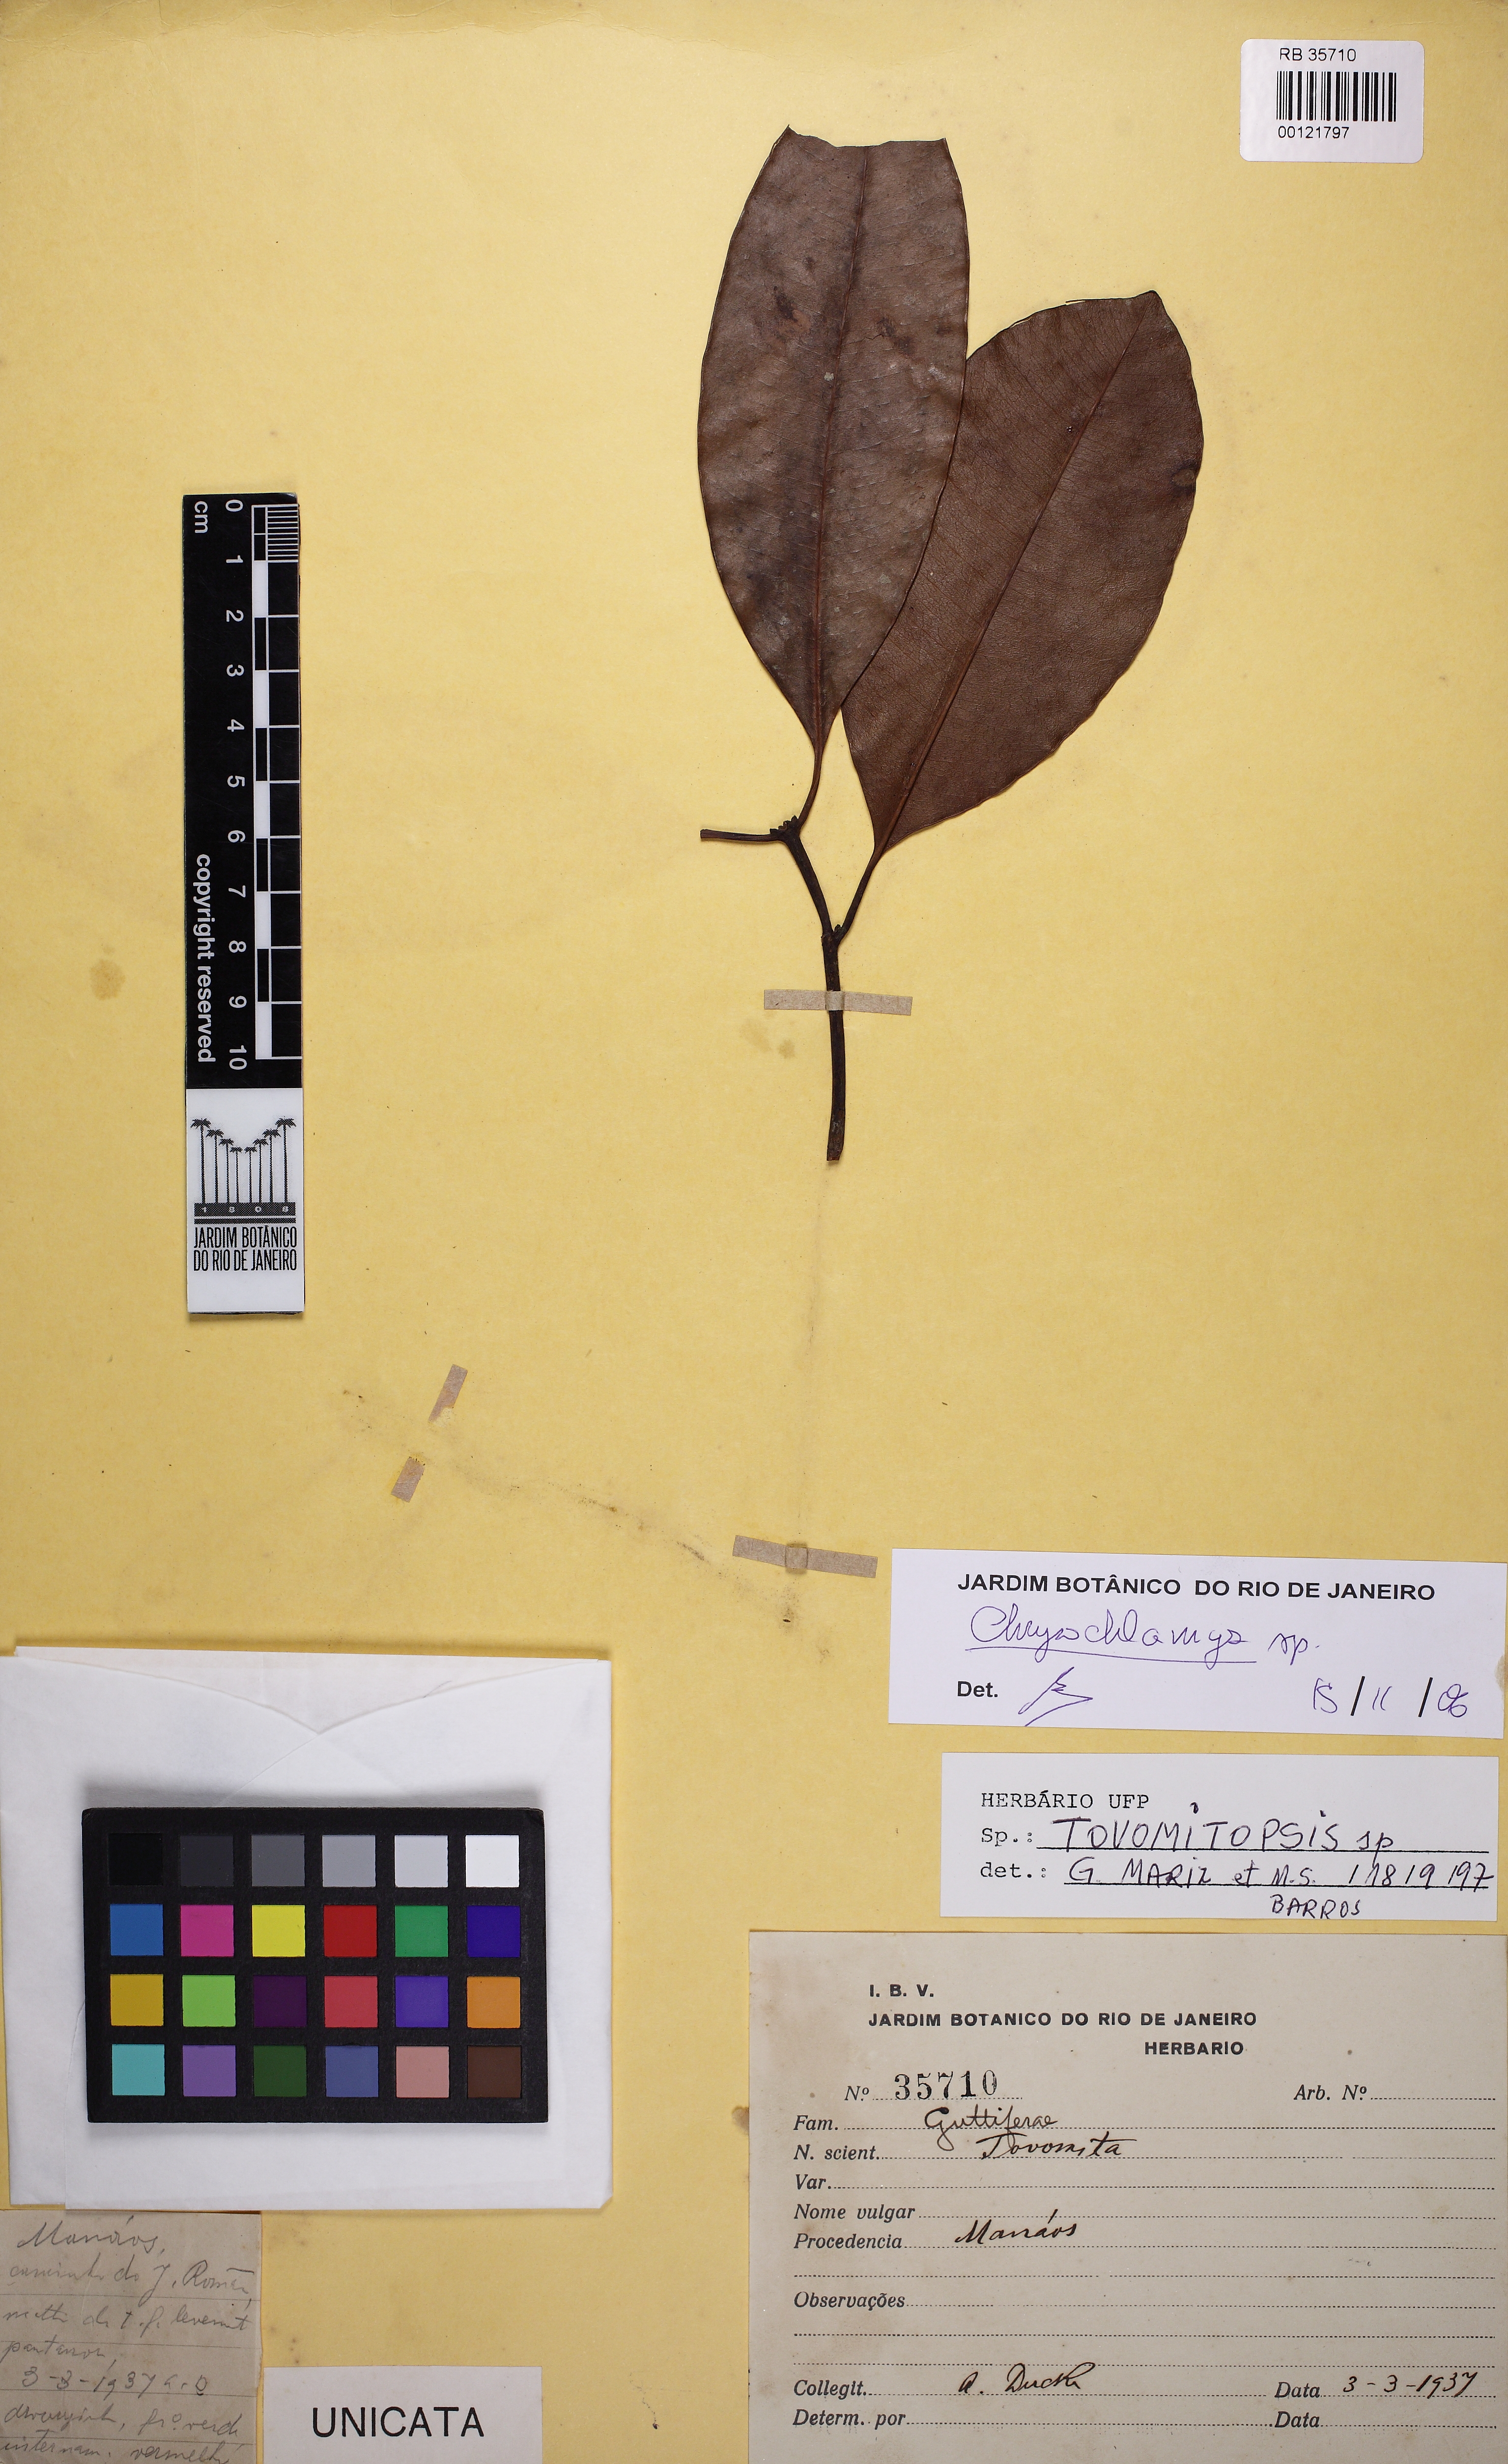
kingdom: Plantae
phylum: Tracheophyta
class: Magnoliopsida
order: Malpighiales
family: Clusiaceae
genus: Chrysochlamys
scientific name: Chrysochlamys
